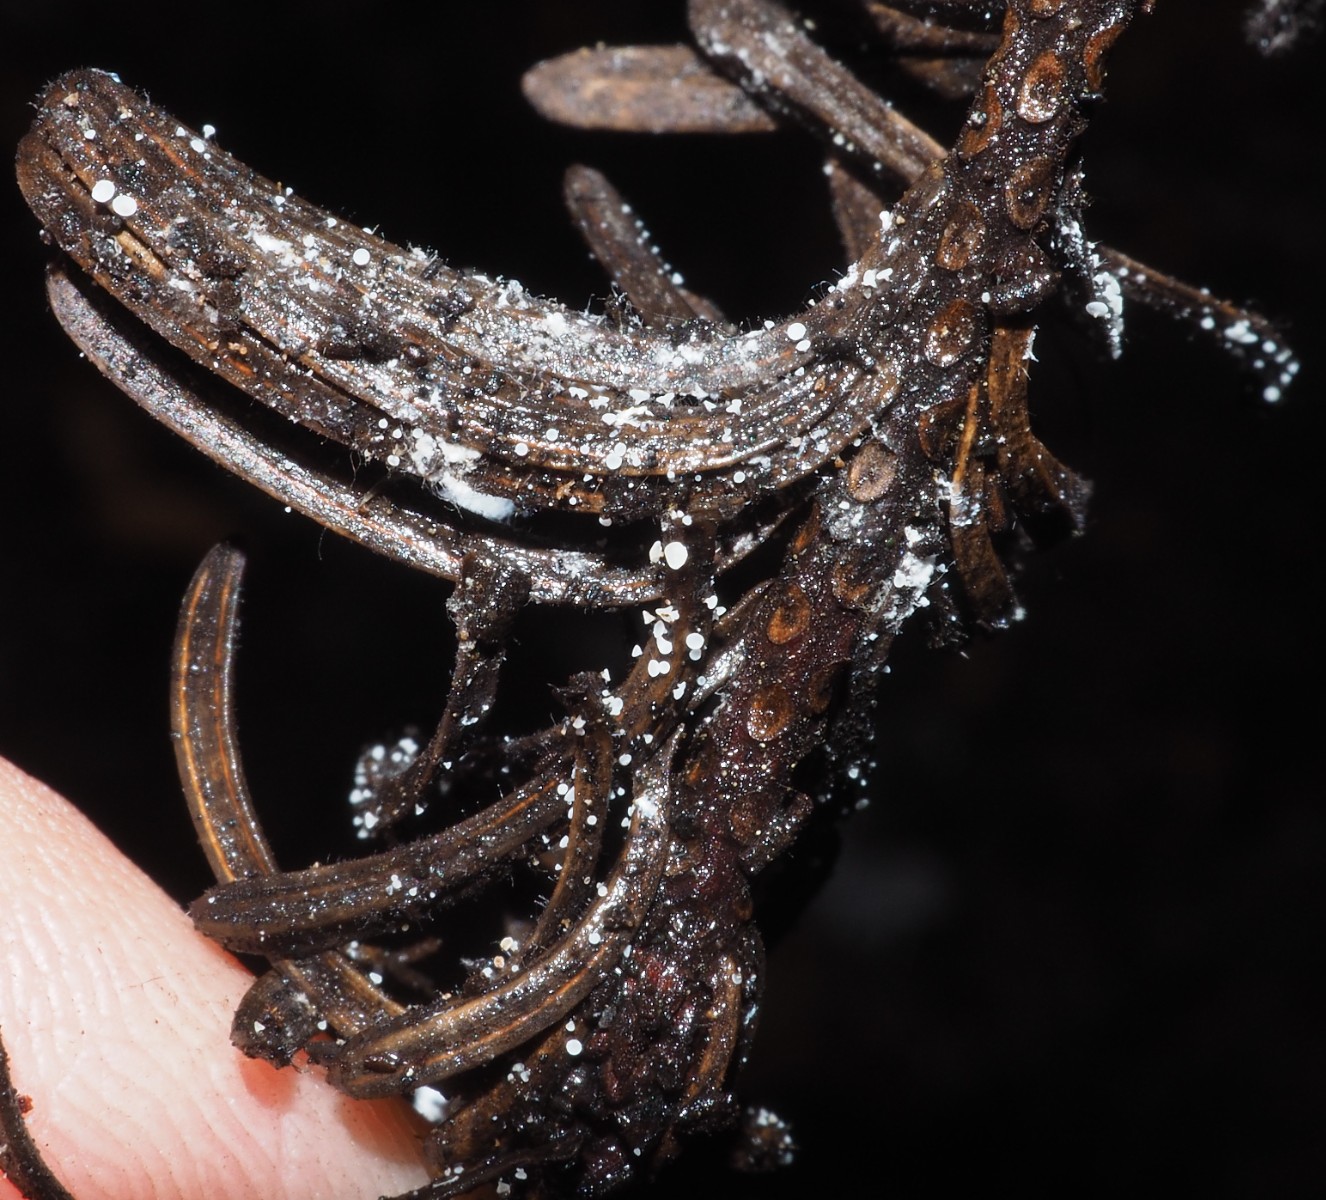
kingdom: Fungi
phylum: Ascomycota
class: Leotiomycetes
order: Helotiales
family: Hyaloscyphaceae
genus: Cistella
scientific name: Cistella acuum
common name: nåle-sirskive
